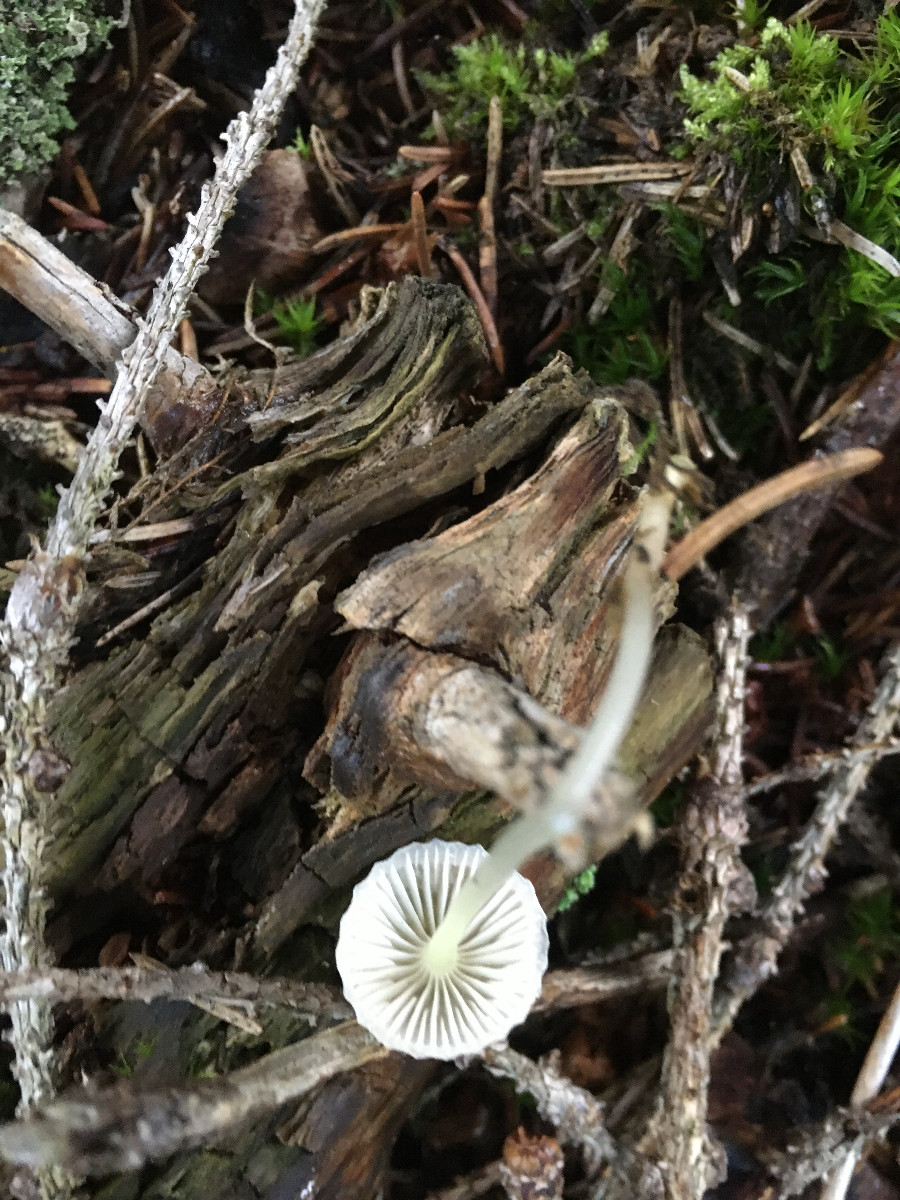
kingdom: Fungi
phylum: Basidiomycota
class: Agaricomycetes
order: Agaricales
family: Mycenaceae
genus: Mycena
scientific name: Mycena epipterygia
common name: gulstokket huesvamp
